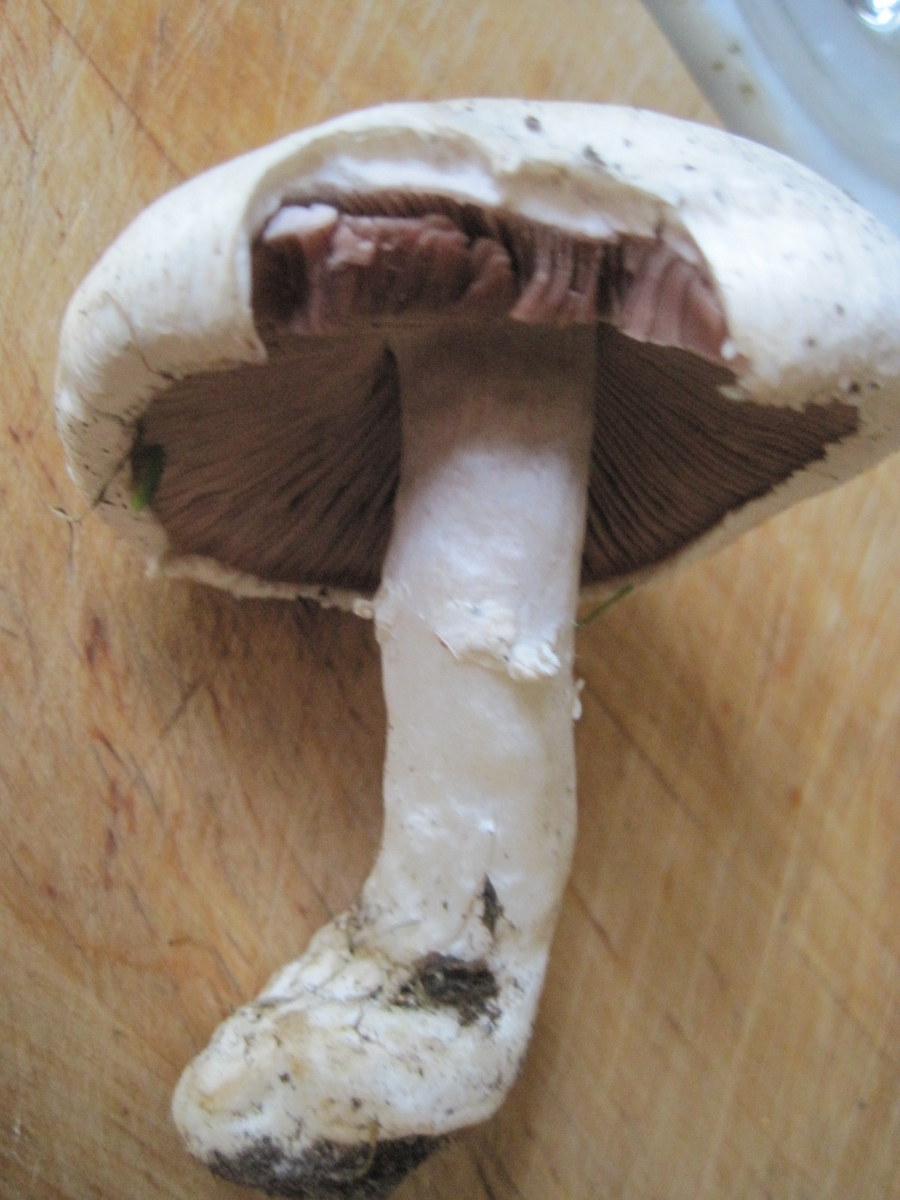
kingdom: Fungi
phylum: Basidiomycota
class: Agaricomycetes
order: Agaricales
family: Agaricaceae
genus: Agaricus
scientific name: Agaricus litoralis
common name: kyst-champignon
